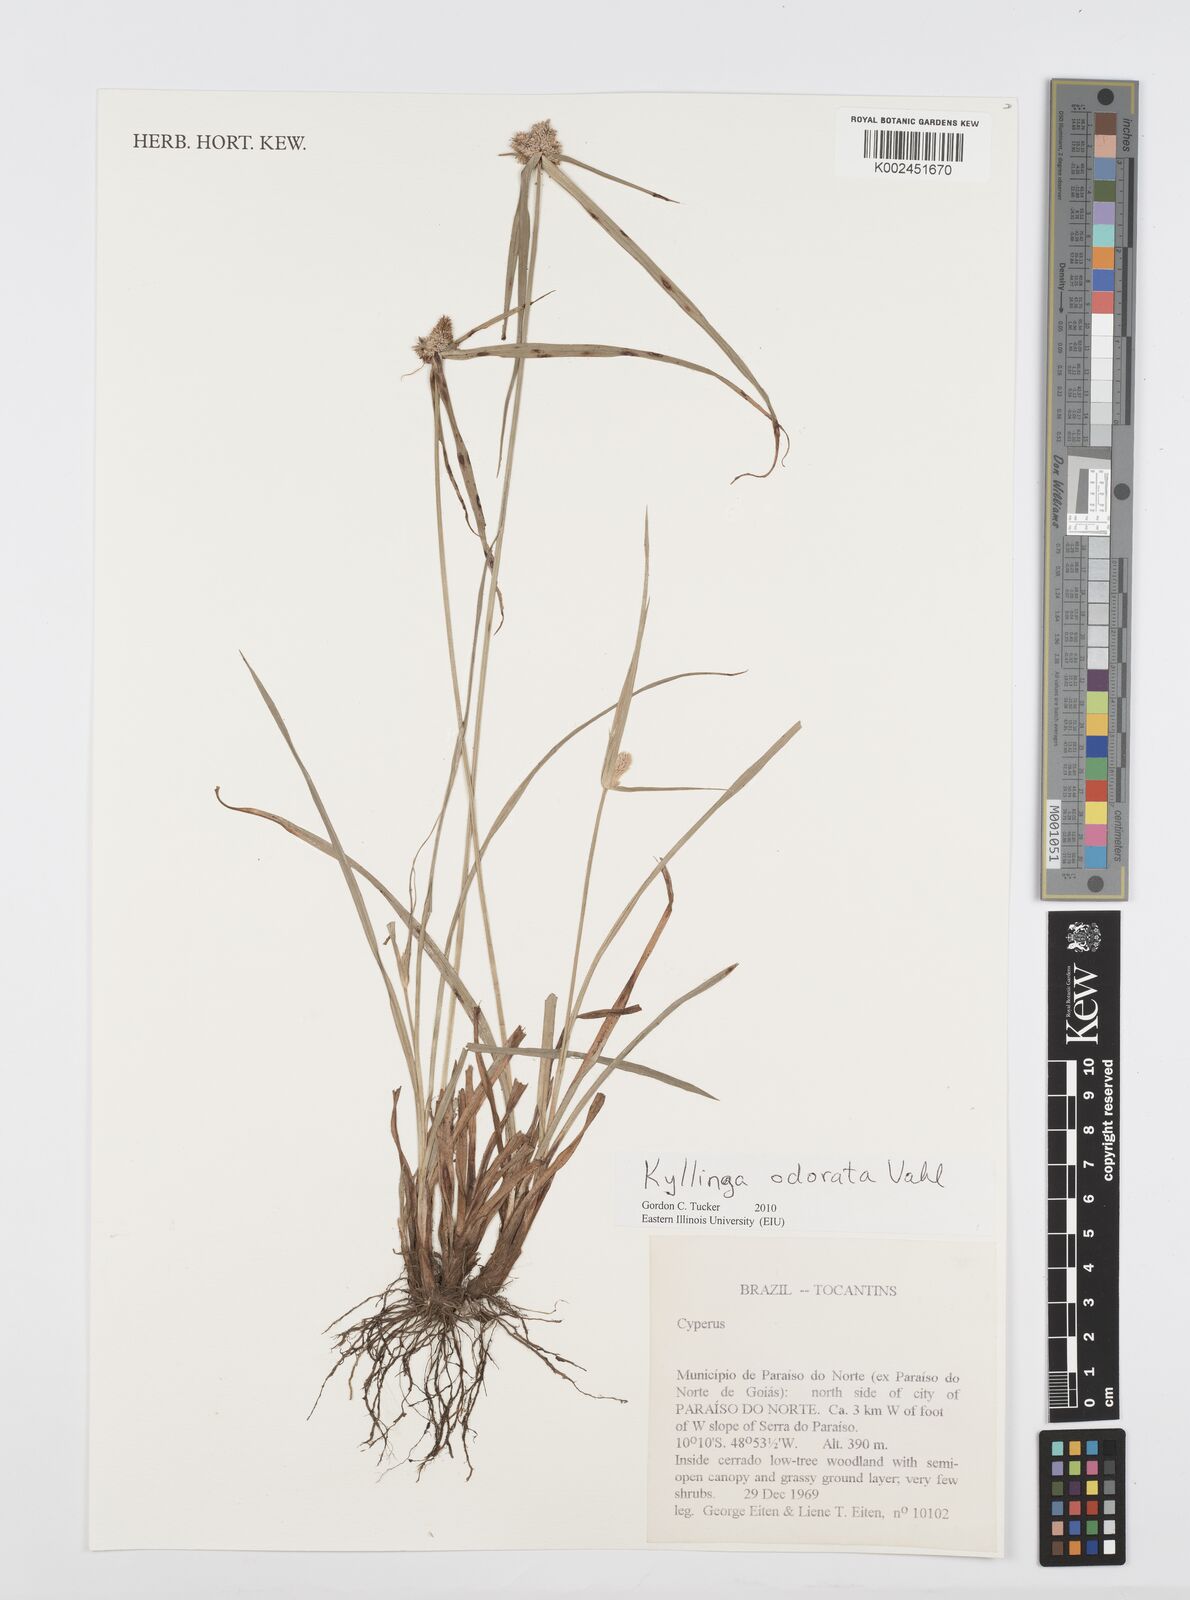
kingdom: Plantae
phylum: Tracheophyta
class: Liliopsida
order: Poales
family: Cyperaceae
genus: Cyperus
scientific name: Cyperus
